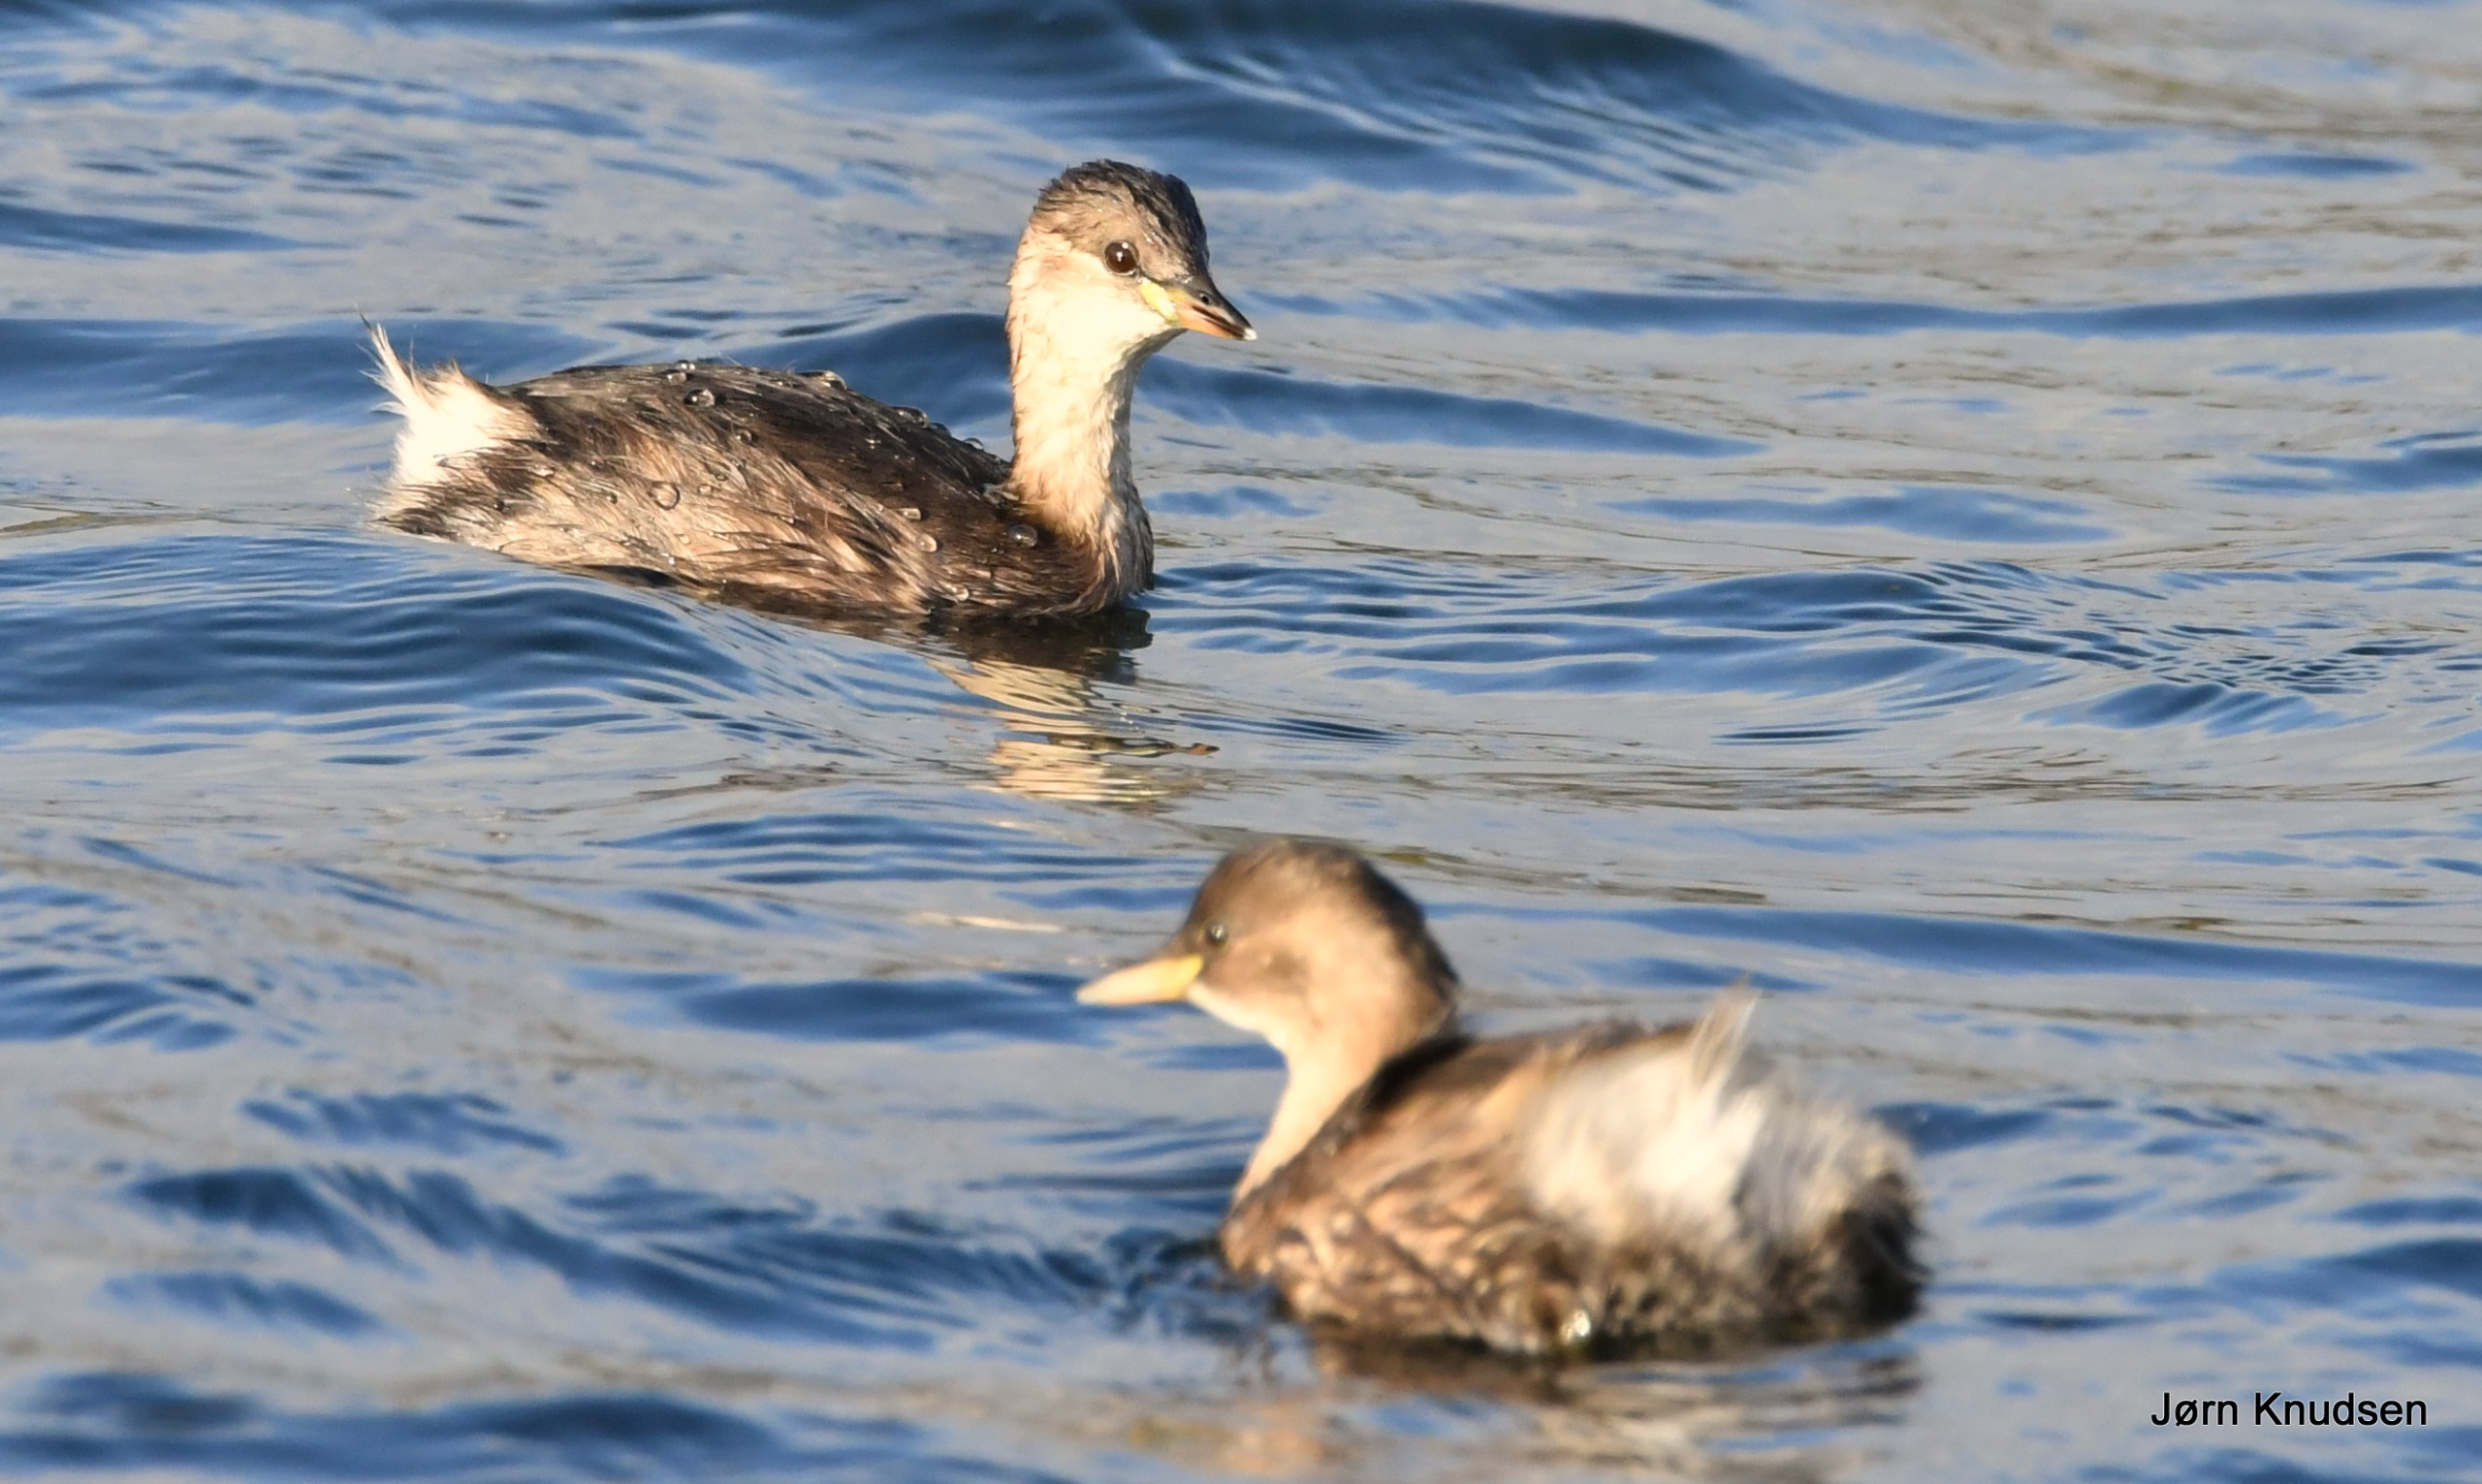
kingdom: Animalia
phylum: Chordata
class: Aves
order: Podicipediformes
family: Podicipedidae
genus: Tachybaptus
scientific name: Tachybaptus ruficollis
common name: Lille lappedykker
